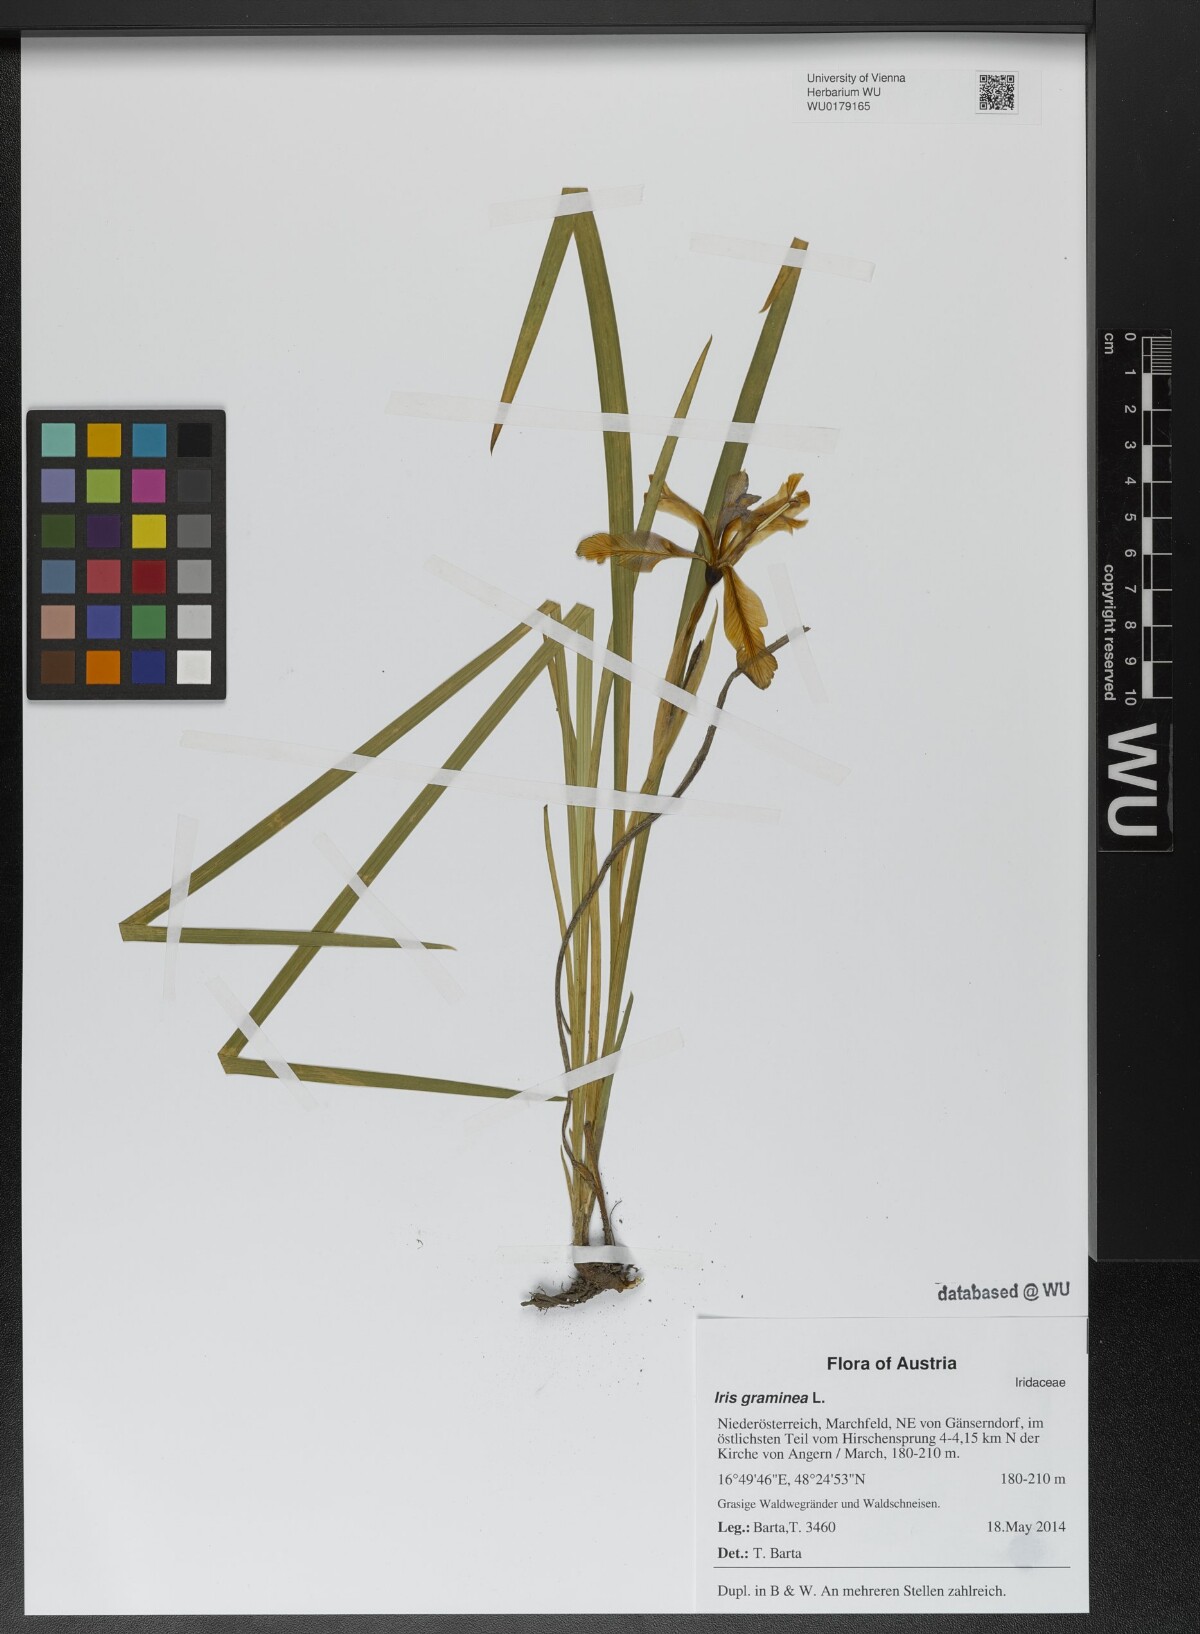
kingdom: Plantae
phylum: Tracheophyta
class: Liliopsida
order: Asparagales
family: Iridaceae
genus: Iris
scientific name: Iris graminea
